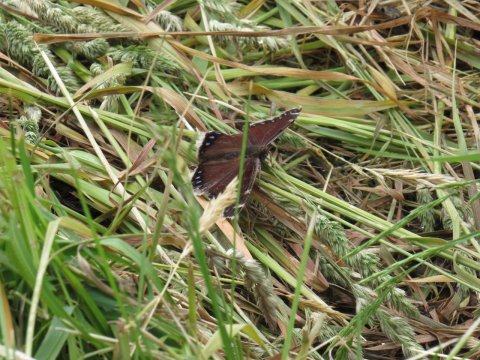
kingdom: Animalia
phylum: Arthropoda
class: Insecta
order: Lepidoptera
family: Nymphalidae
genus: Nymphalis
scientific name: Nymphalis antiopa
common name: Mourning Cloak
